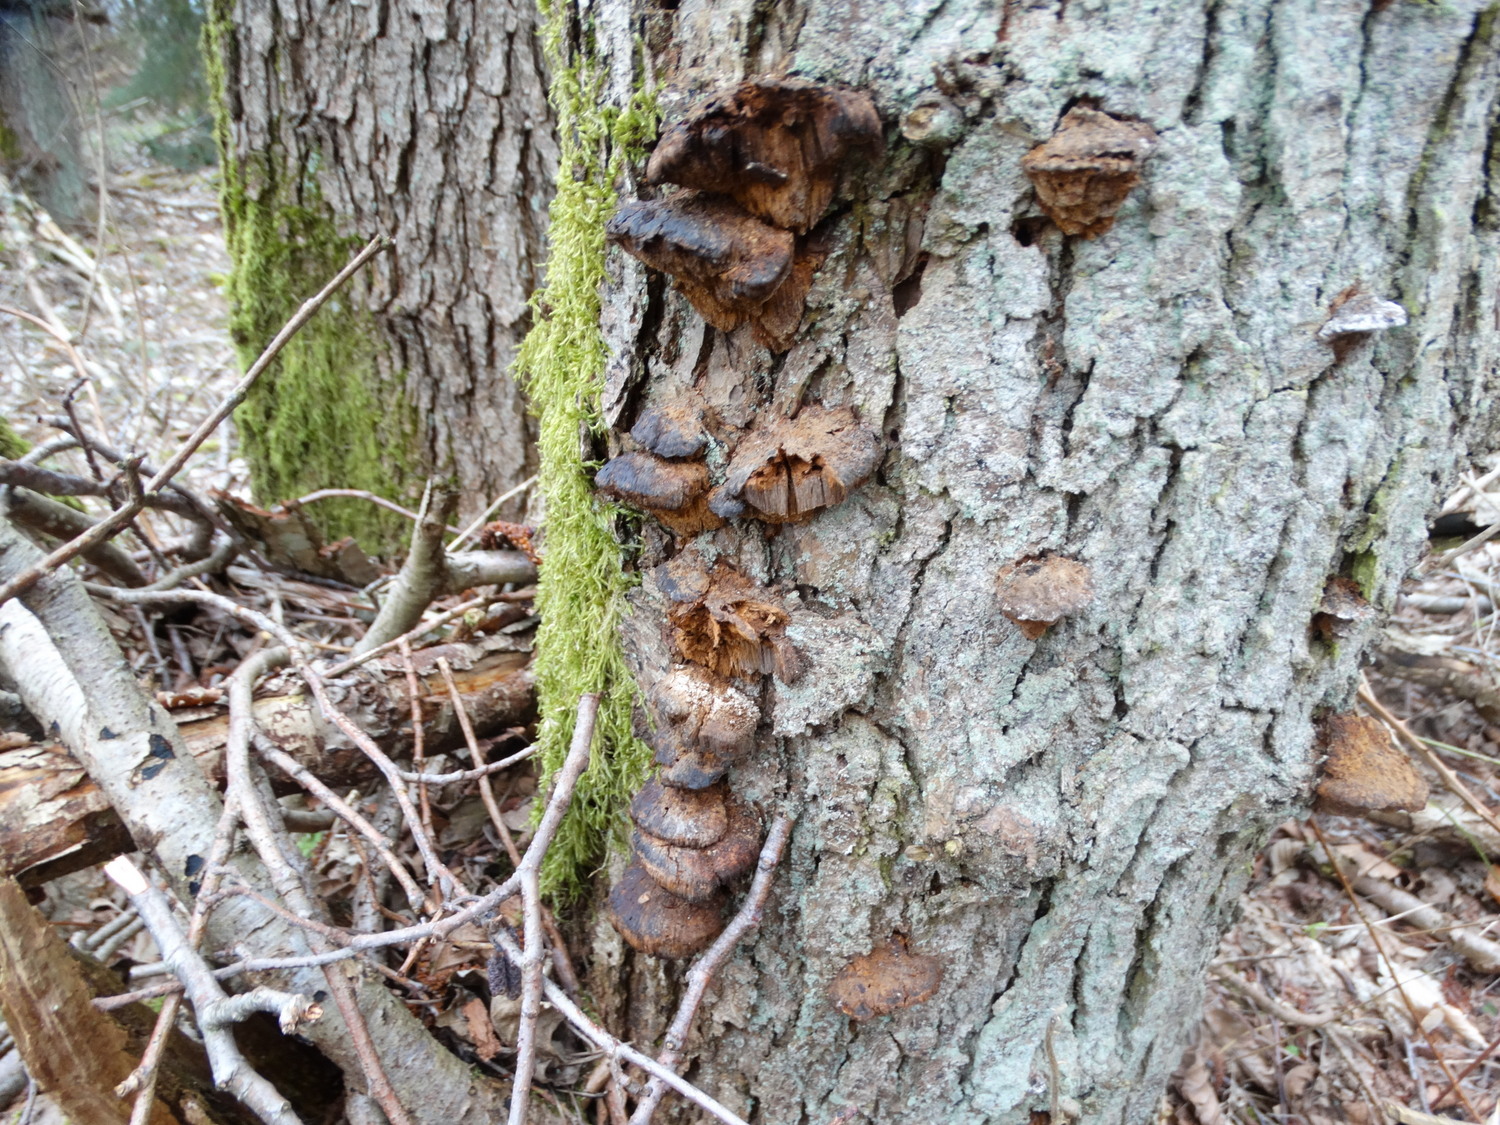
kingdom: Fungi
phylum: Basidiomycota
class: Agaricomycetes
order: Hymenochaetales
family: Hymenochaetaceae
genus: Xanthoporia
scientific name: Xanthoporia radiata
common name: elle-spejlporesvamp
